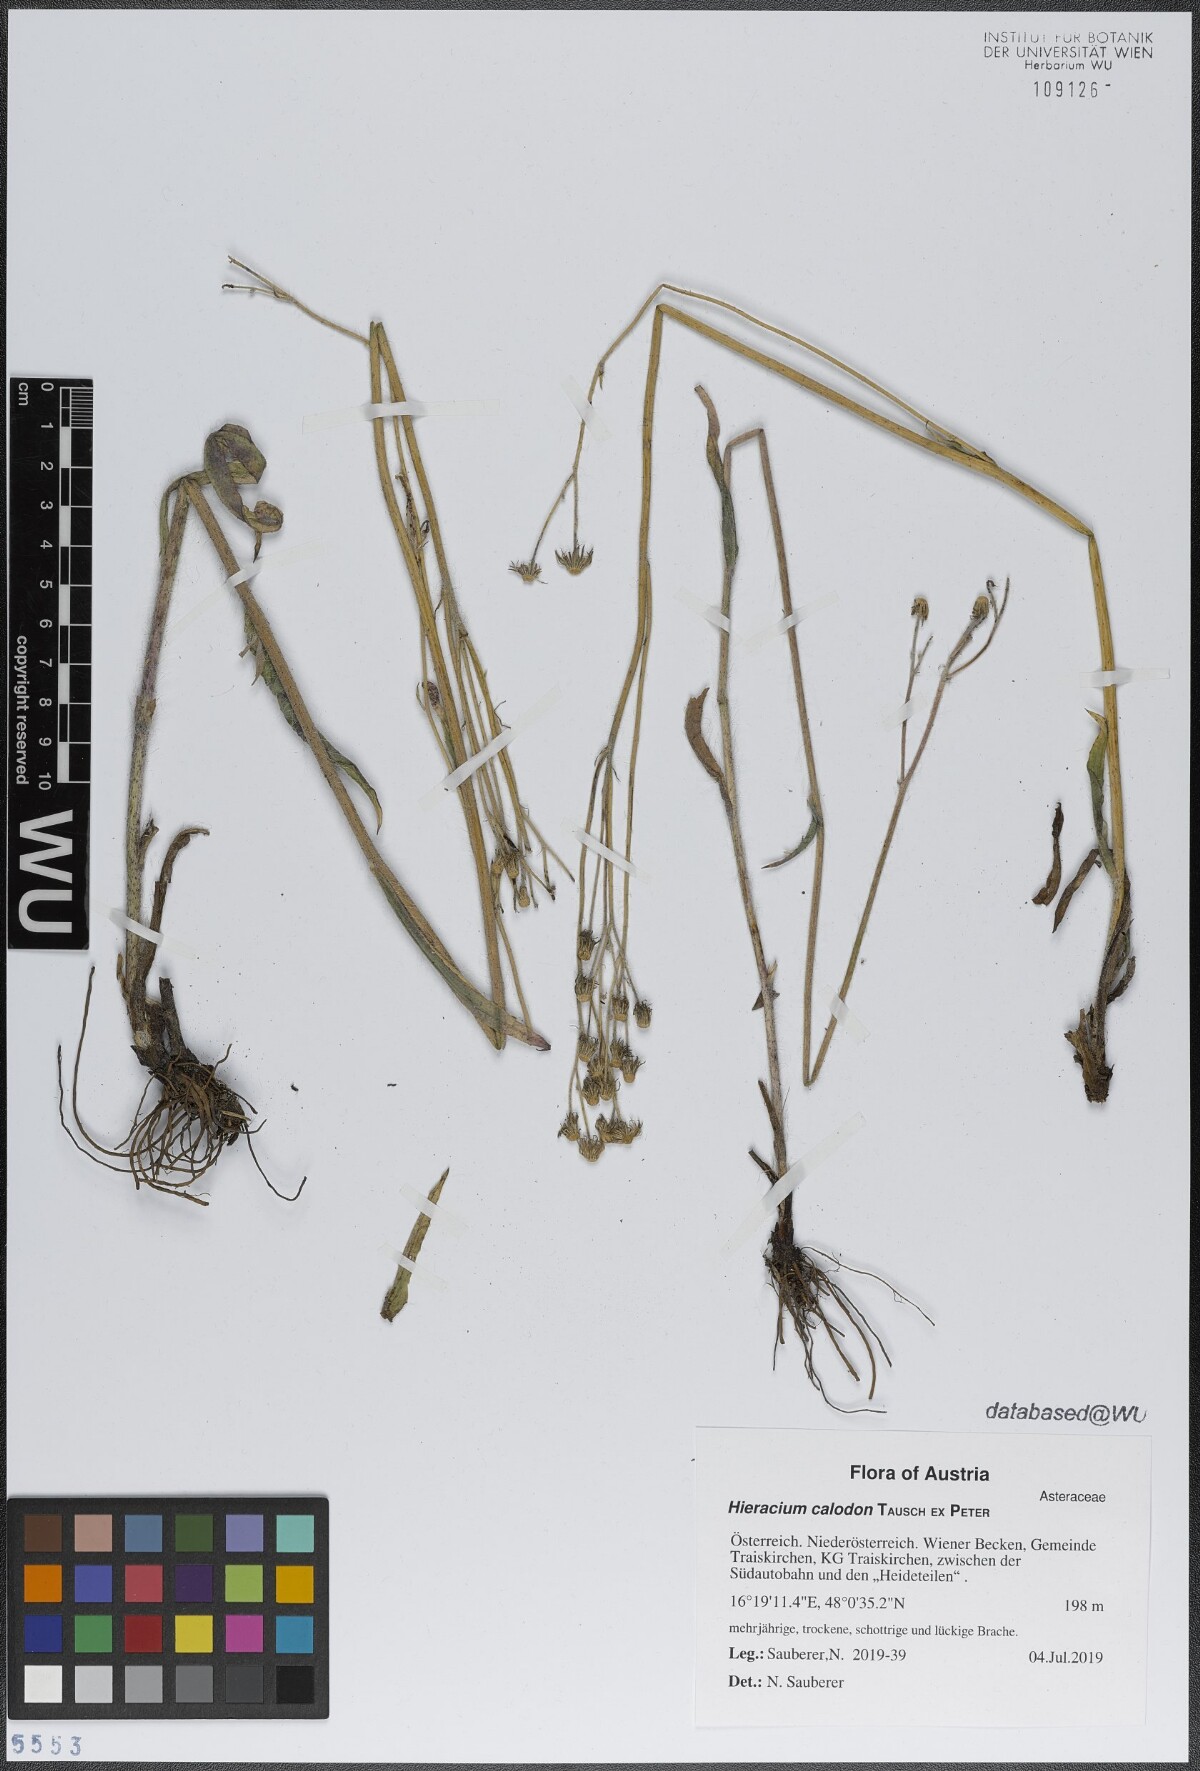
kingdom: Plantae
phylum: Tracheophyta
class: Magnoliopsida
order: Asterales
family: Asteraceae
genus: Pilosella
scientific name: Pilosella calodon
